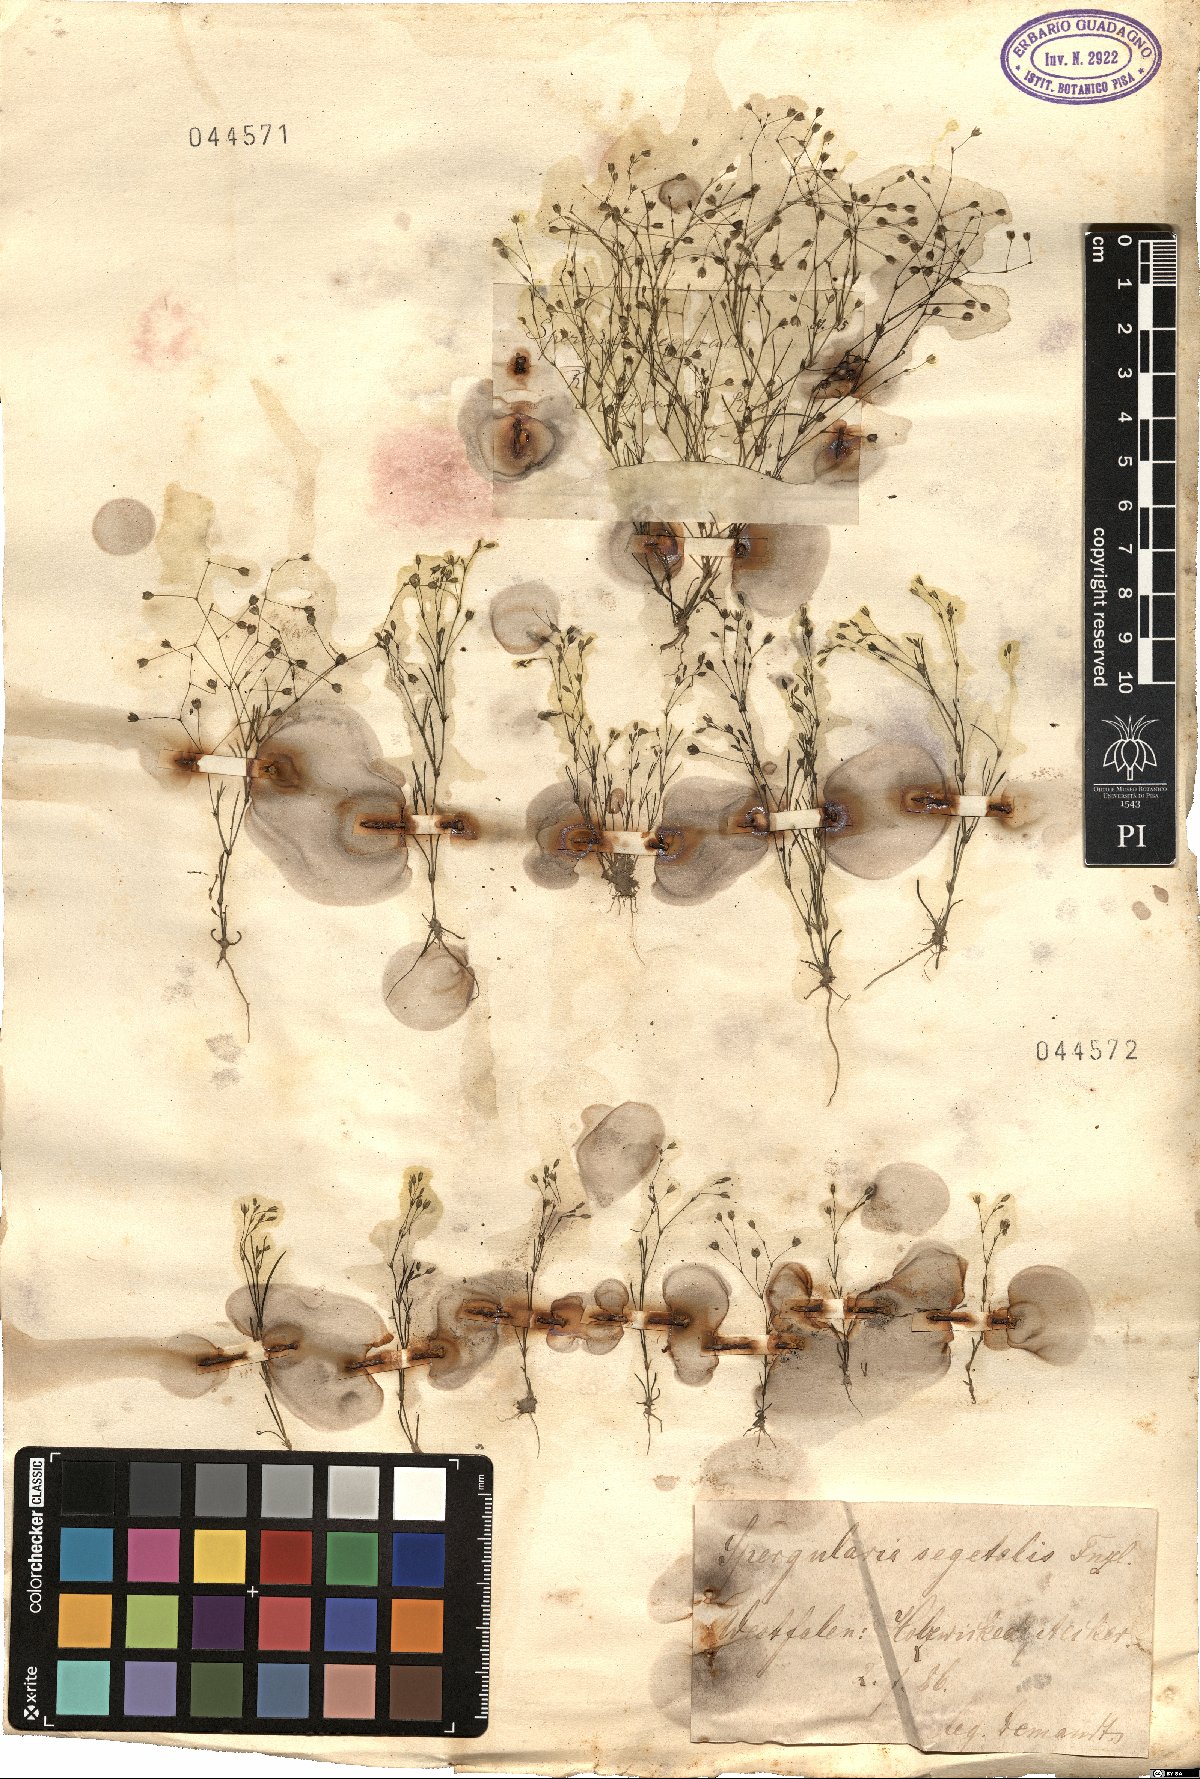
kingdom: Plantae
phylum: Tracheophyta
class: Magnoliopsida
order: Caryophyllales
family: Caryophyllaceae
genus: Spergularia
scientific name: Spergularia segetalis
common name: Corn sand spurrey
